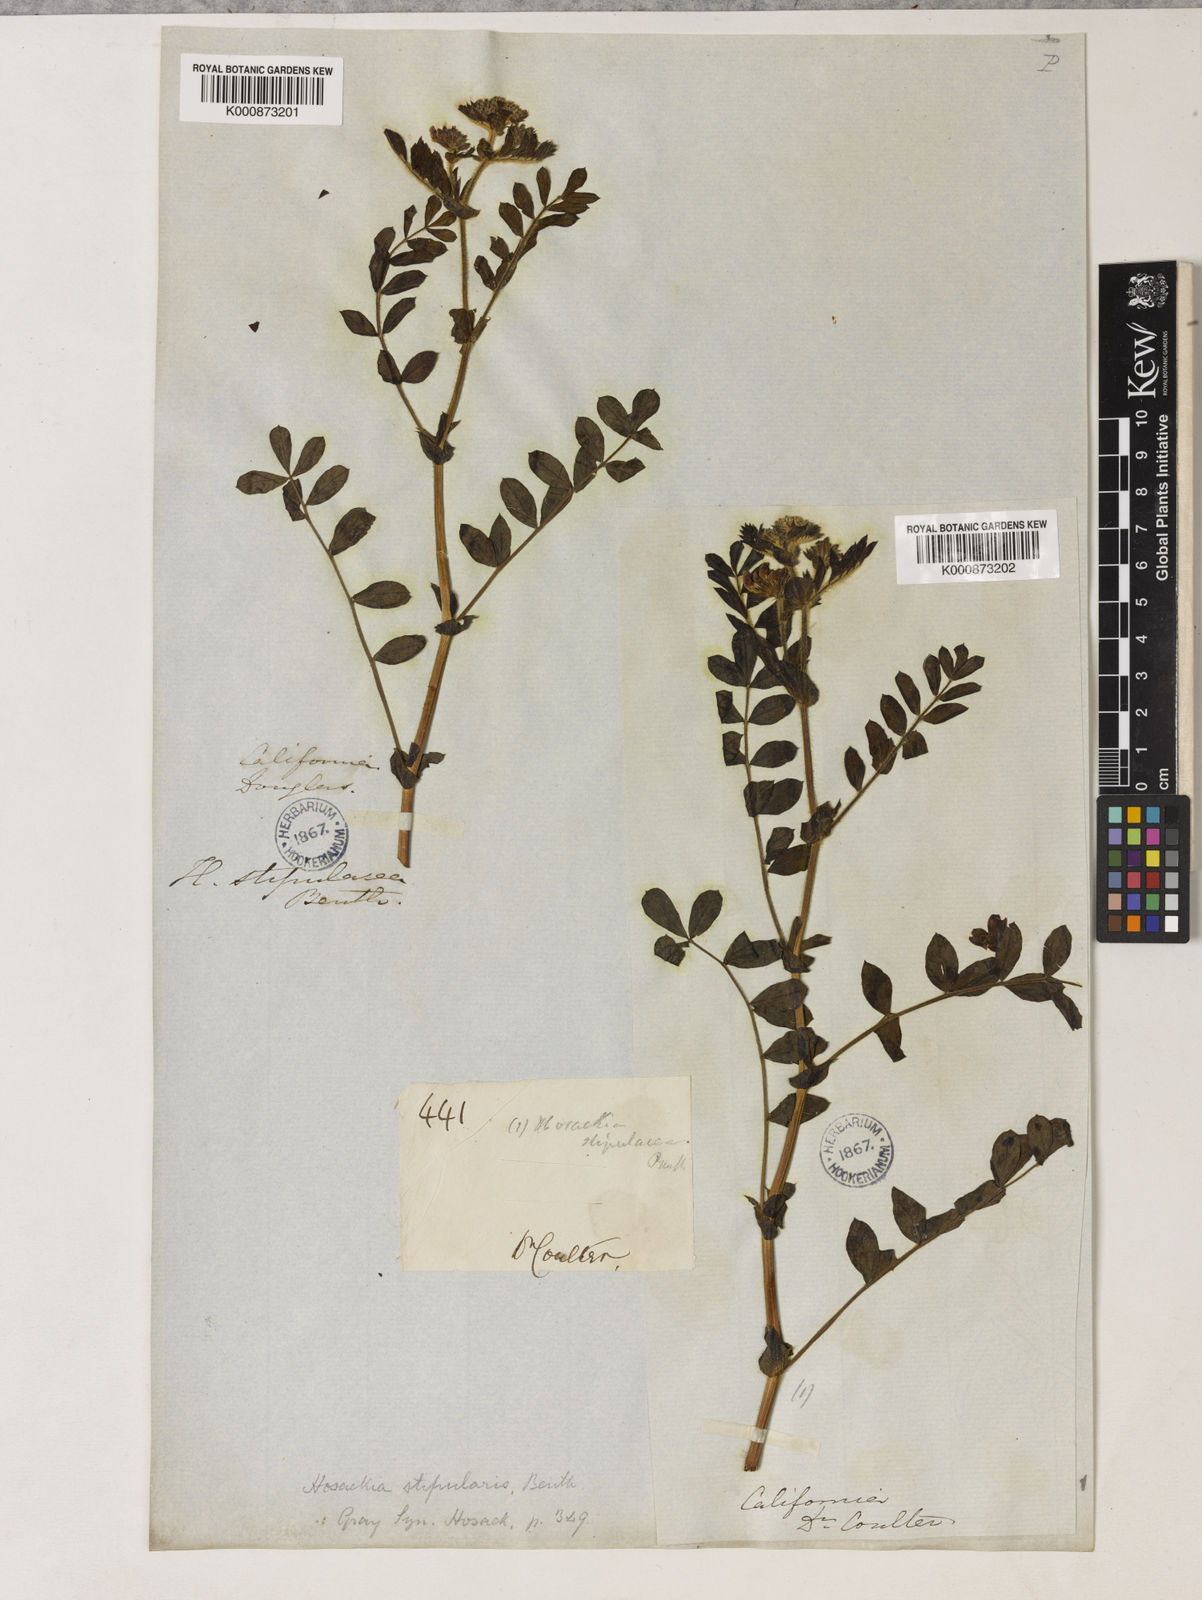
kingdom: Plantae
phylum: Tracheophyta
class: Magnoliopsida
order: Fabales
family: Fabaceae
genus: Hosackia
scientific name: Hosackia stipularis
